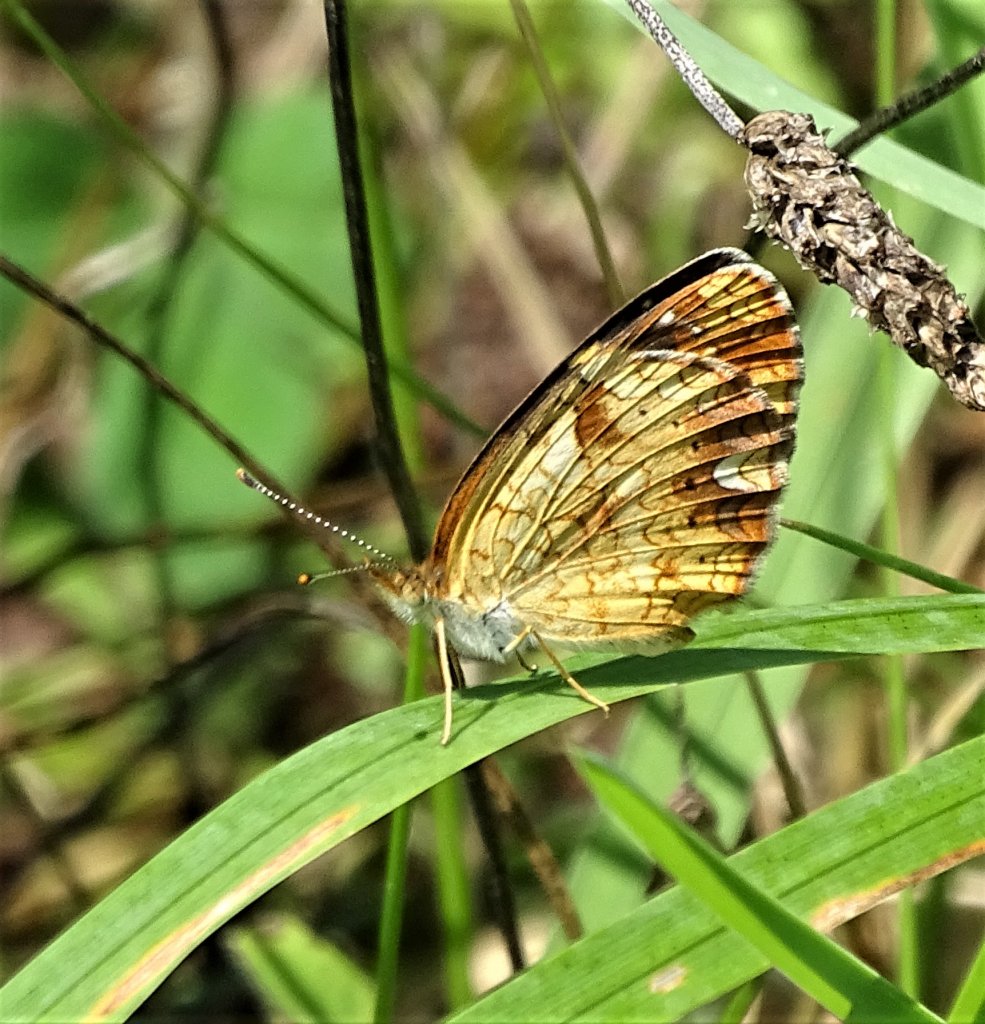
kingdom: Animalia
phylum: Arthropoda
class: Insecta
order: Lepidoptera
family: Nymphalidae
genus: Phyciodes
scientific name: Phyciodes
